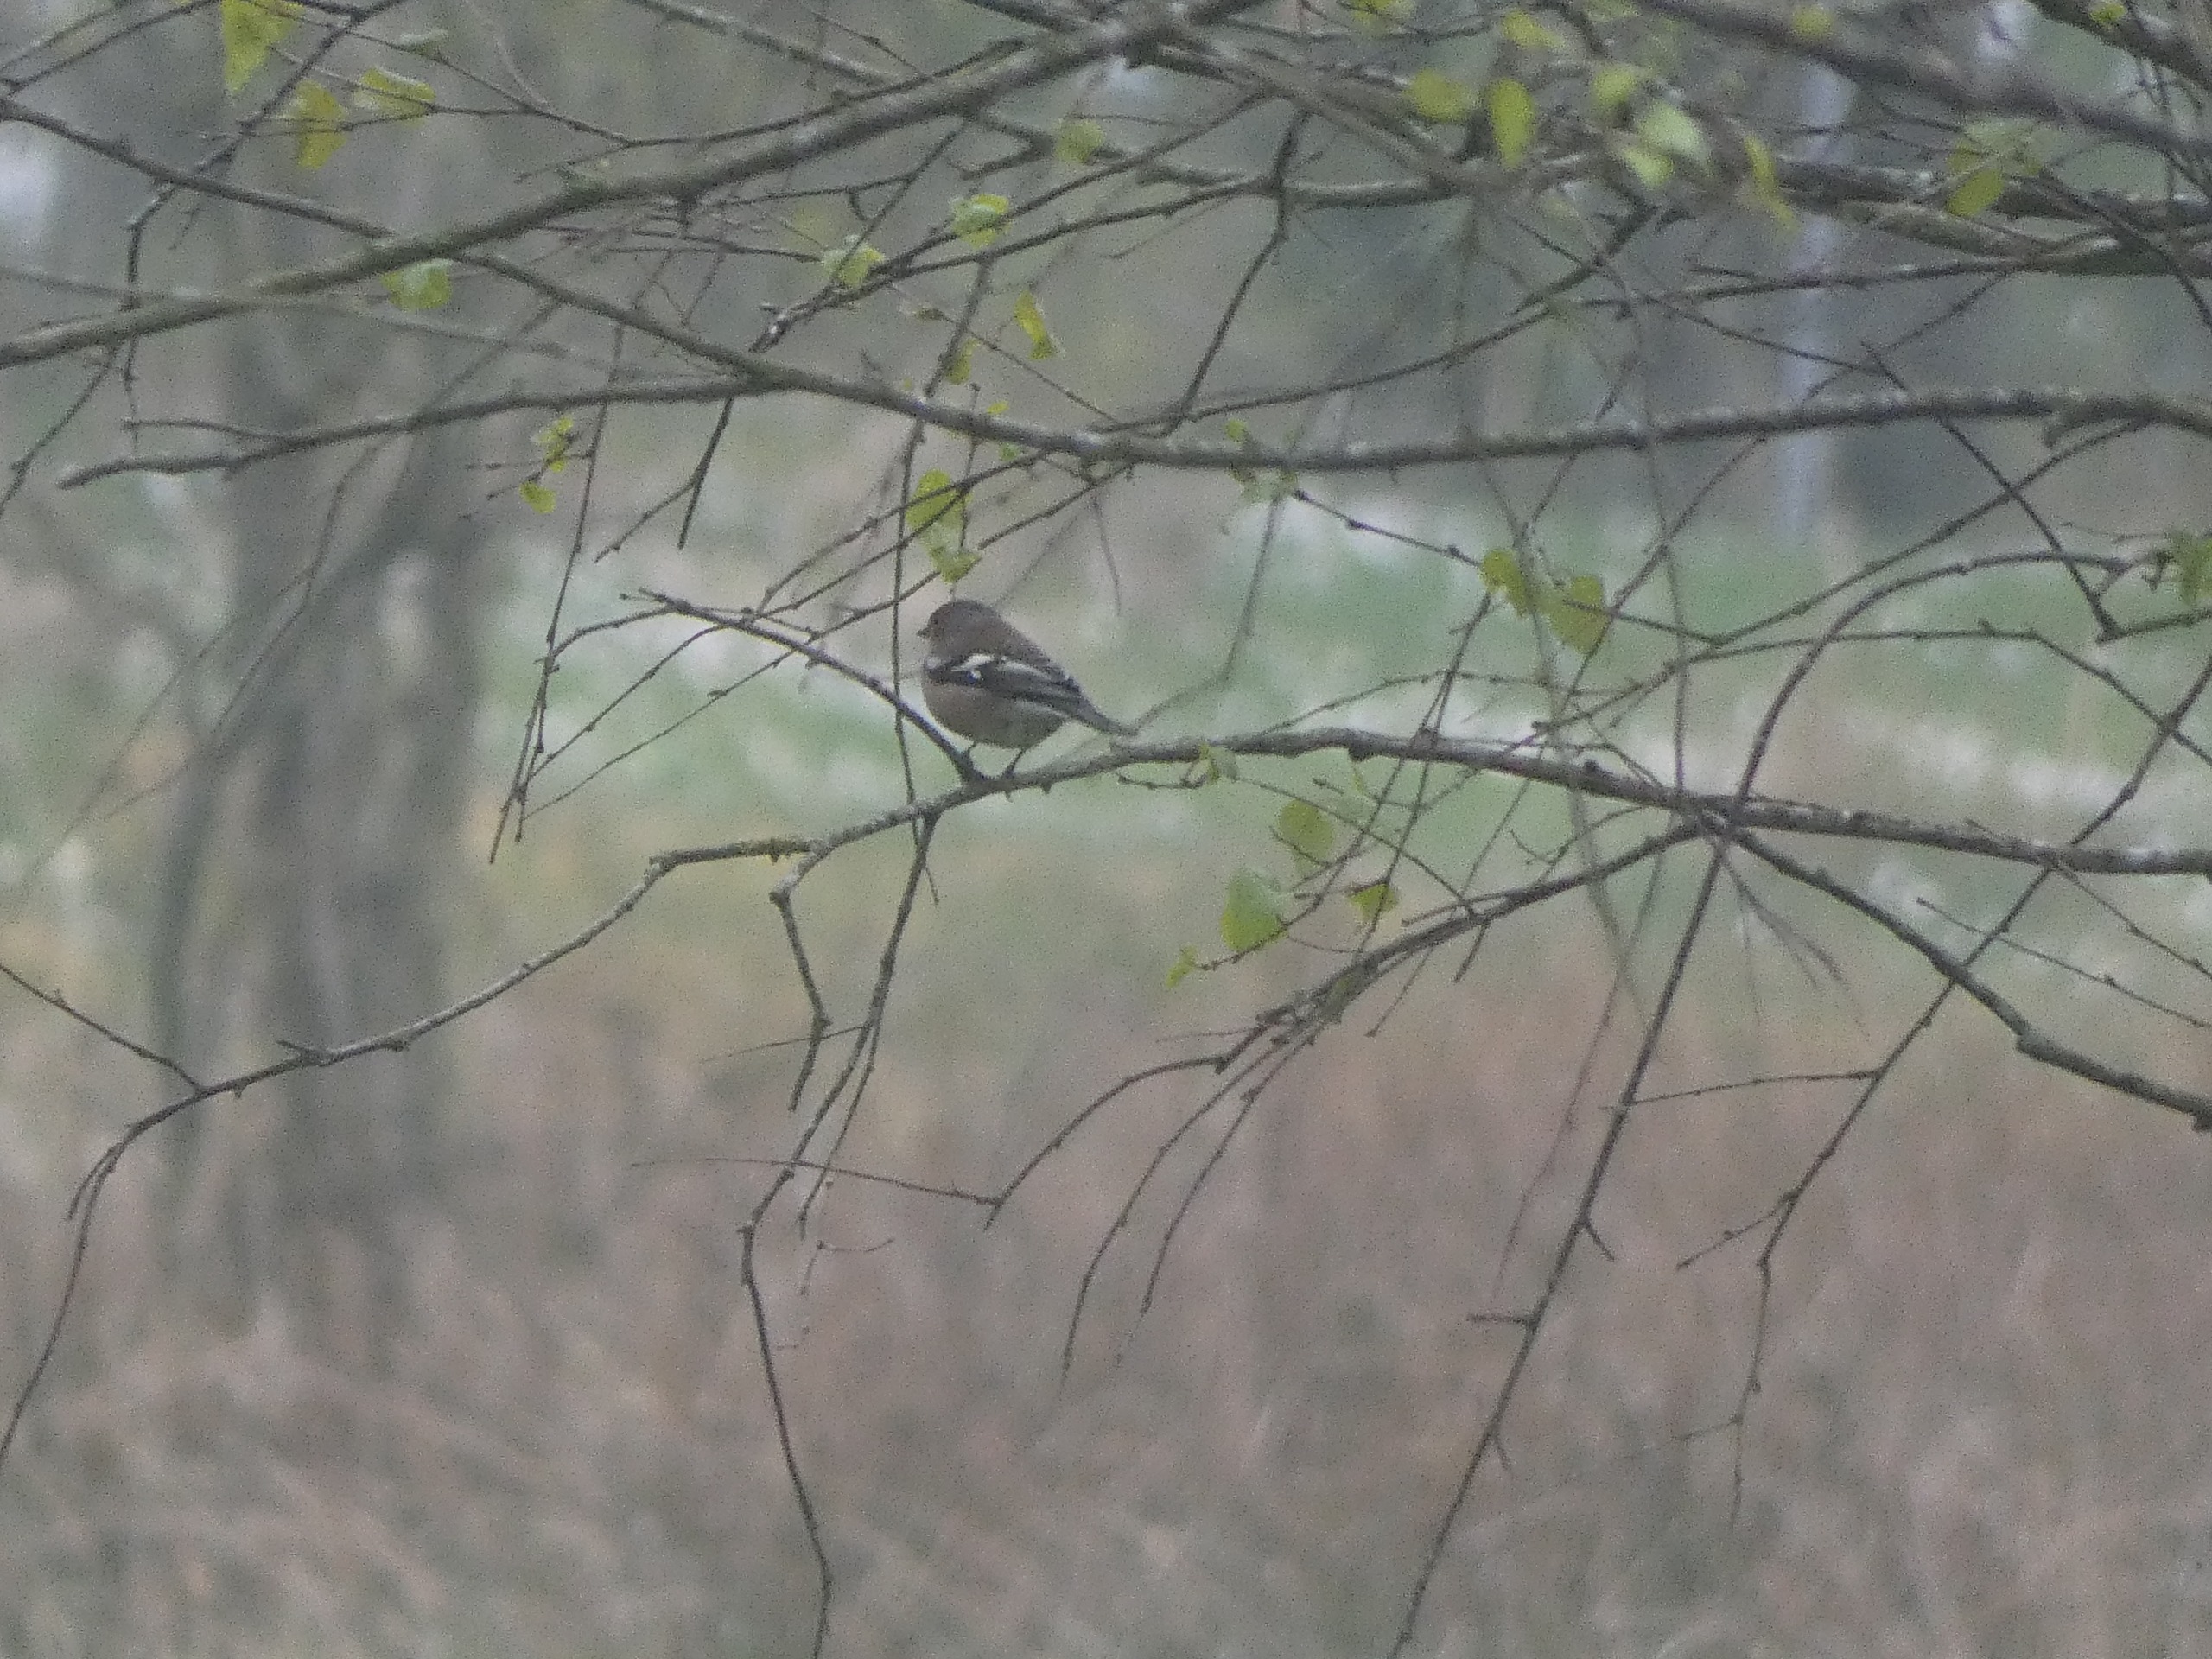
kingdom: Animalia
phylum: Chordata
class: Aves
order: Passeriformes
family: Fringillidae
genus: Fringilla
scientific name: Fringilla coelebs
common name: Bogfinke
